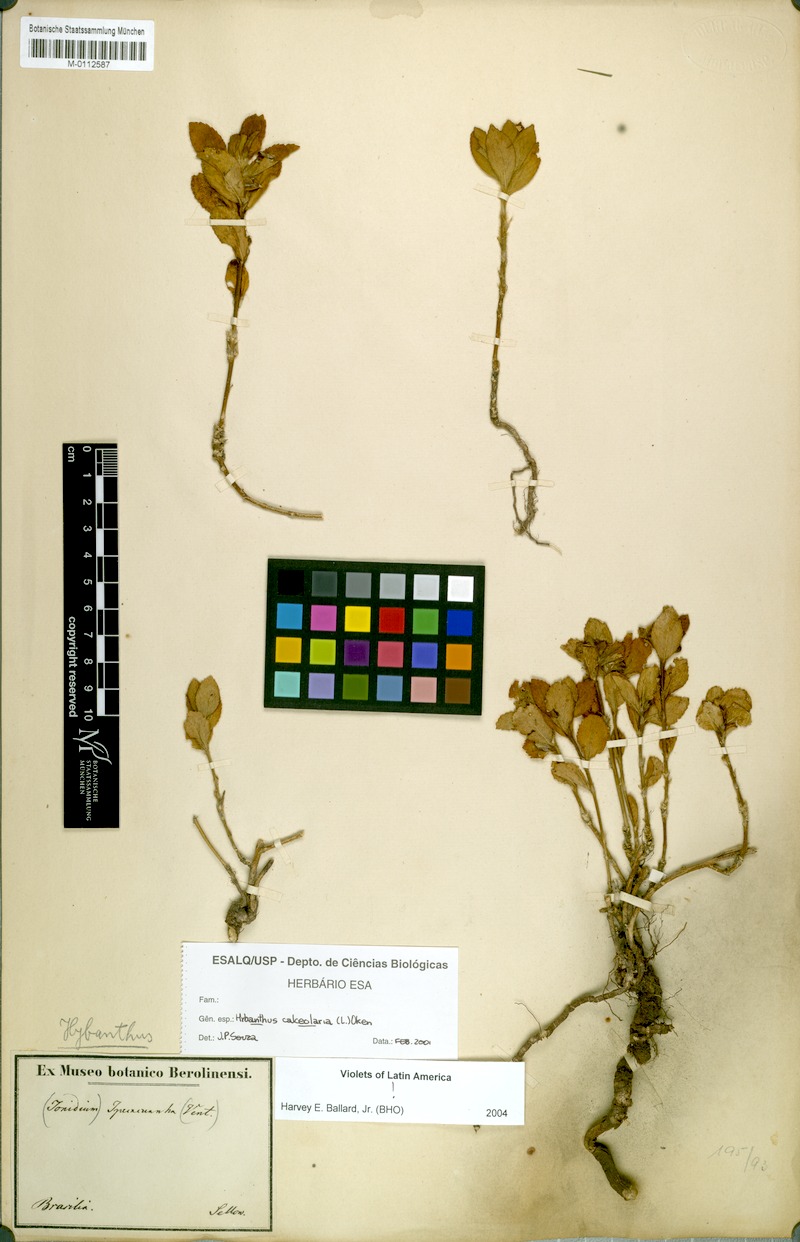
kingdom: Plantae
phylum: Tracheophyta
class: Magnoliopsida
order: Malpighiales
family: Violaceae
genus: Pombalia
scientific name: Pombalia calceolaria
